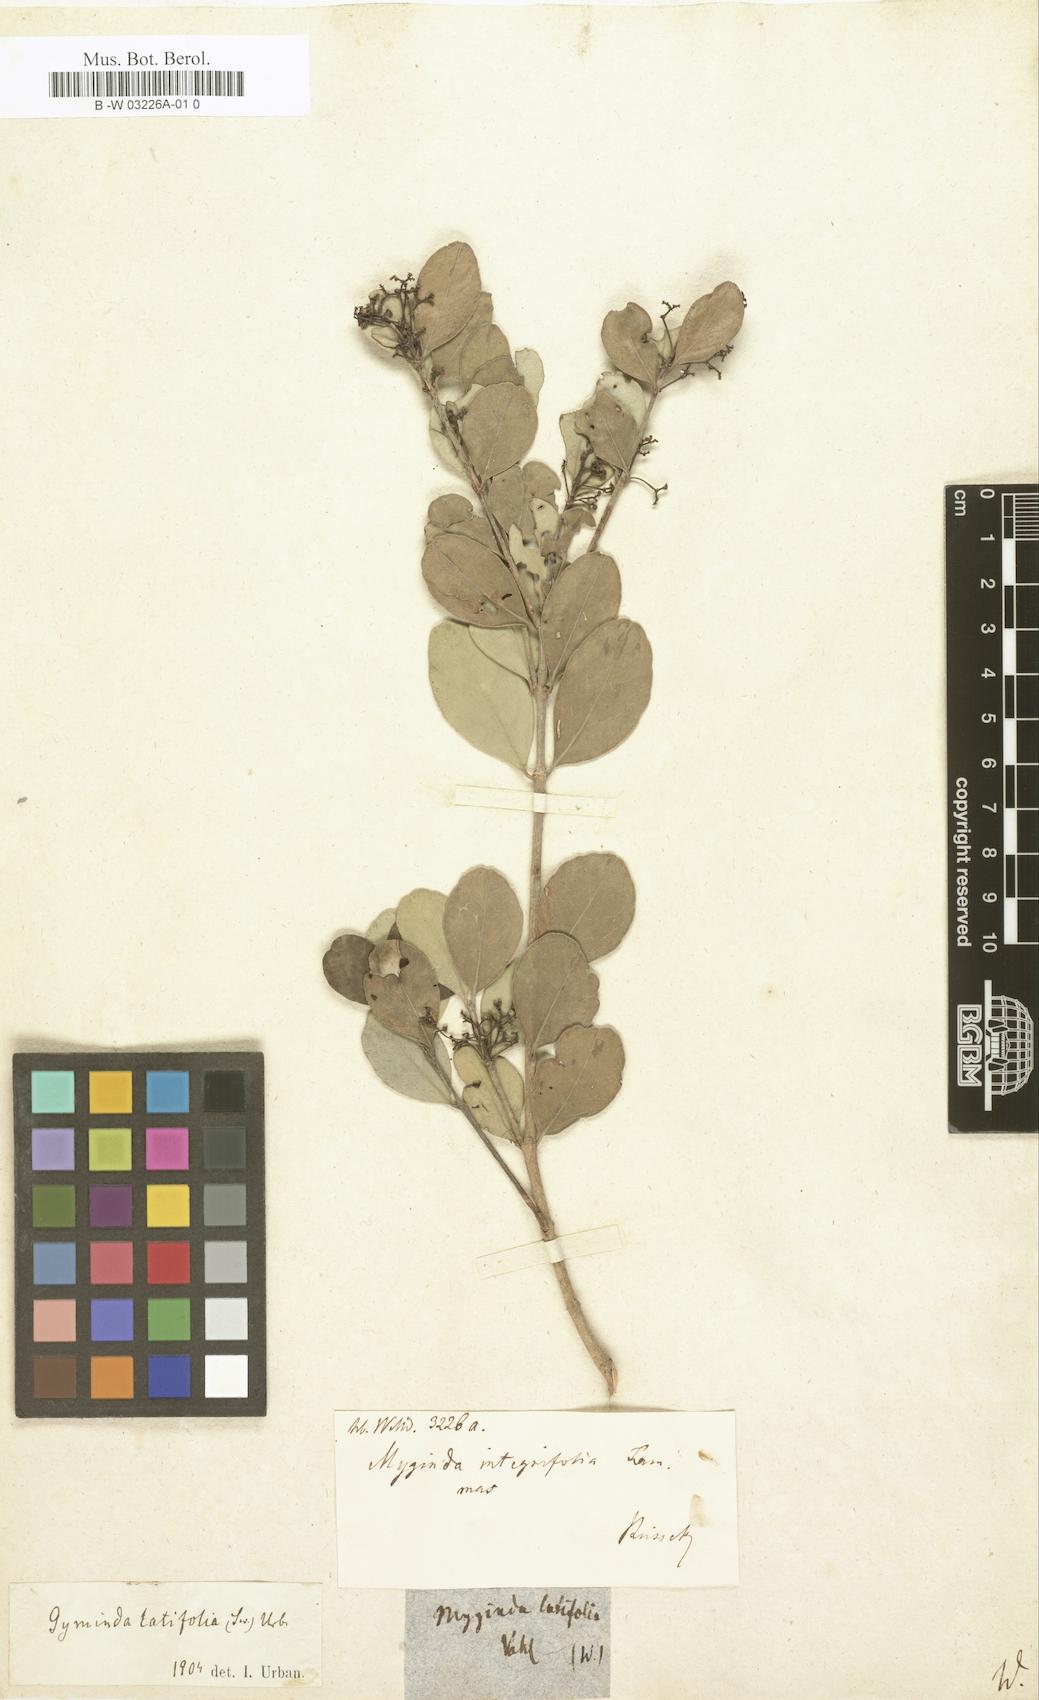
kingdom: Plantae
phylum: Tracheophyta
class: Magnoliopsida
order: Celastrales
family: Celastraceae
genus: Gyminda
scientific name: Gyminda latifolia
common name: False boxwood
